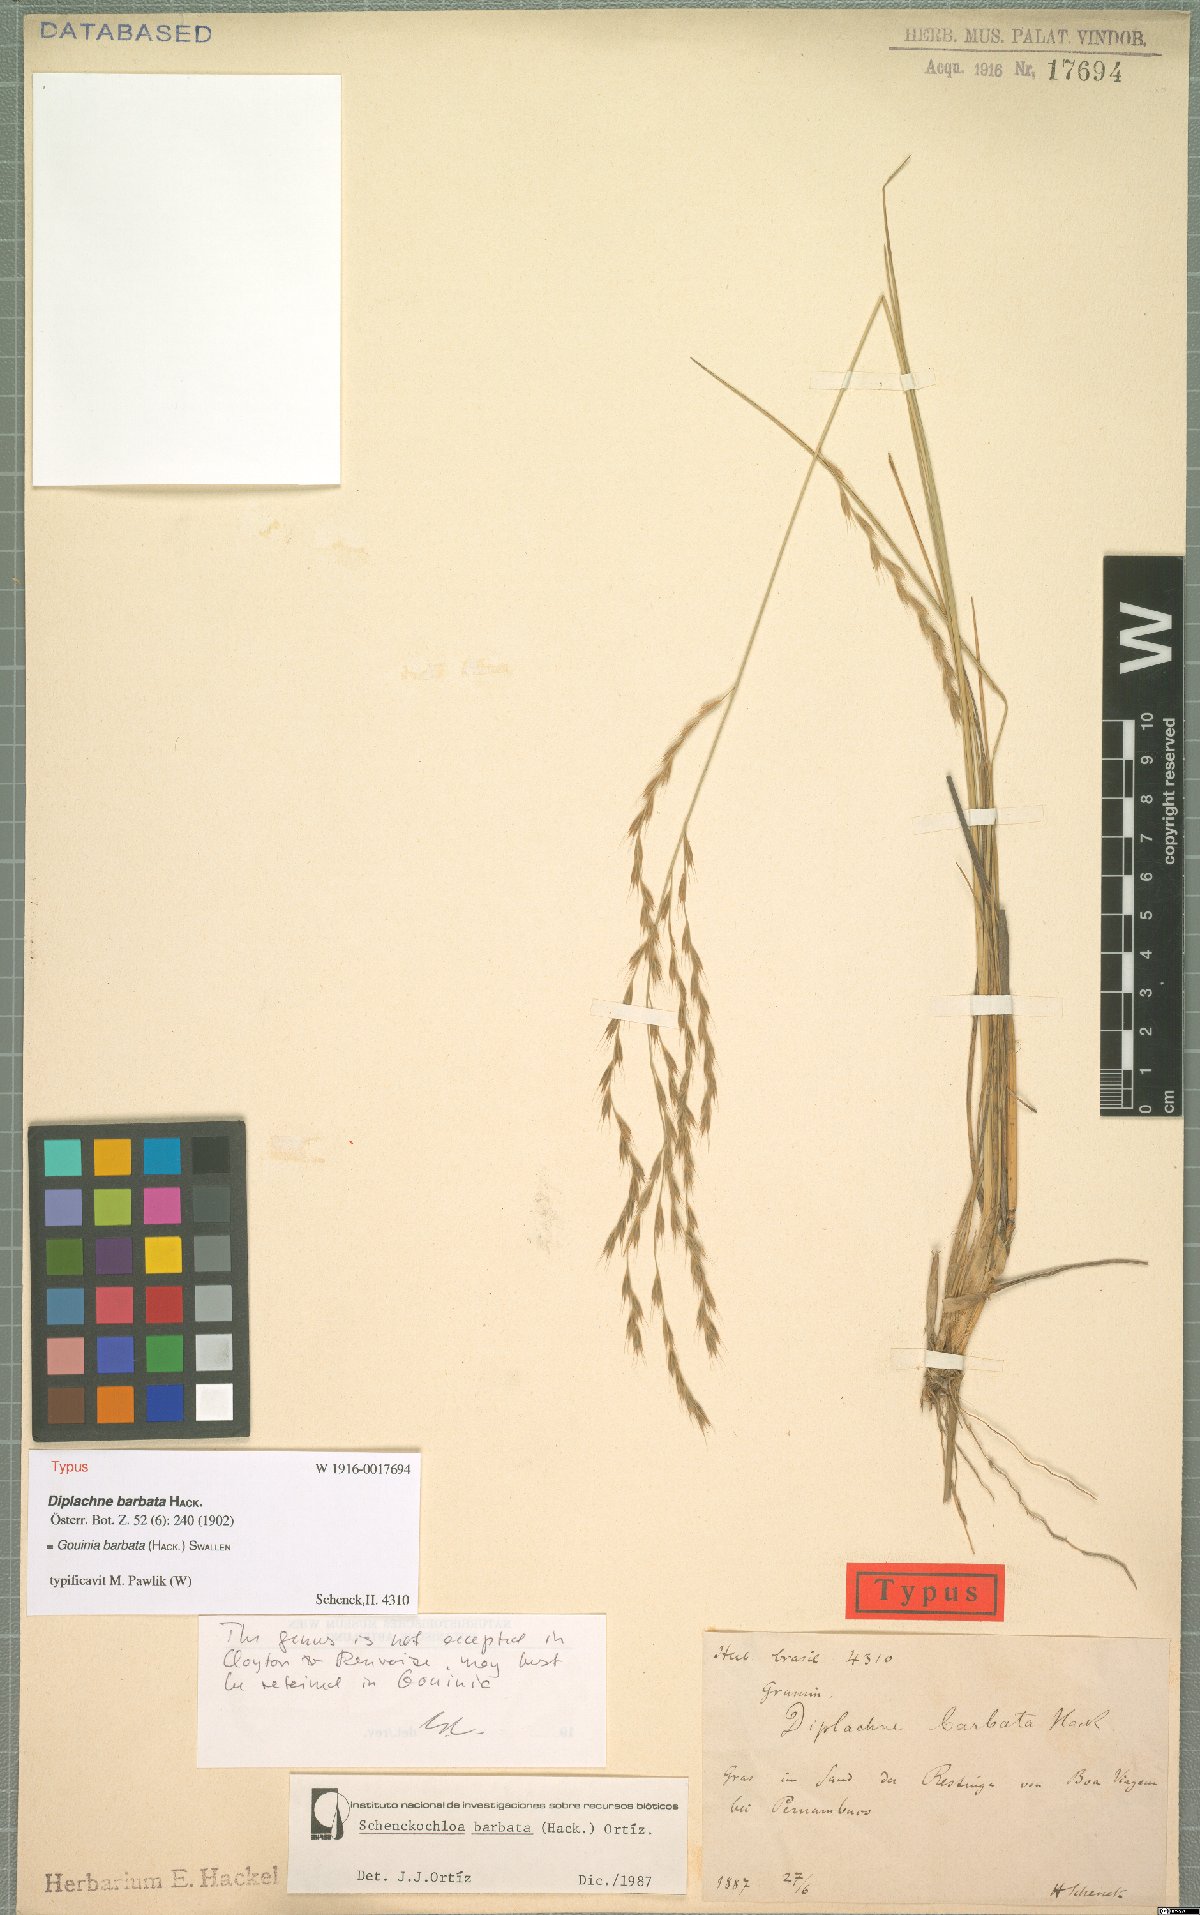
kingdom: Plantae
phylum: Tracheophyta
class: Liliopsida
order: Poales
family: Poaceae
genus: Schenckochloa
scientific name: Schenckochloa barbata
